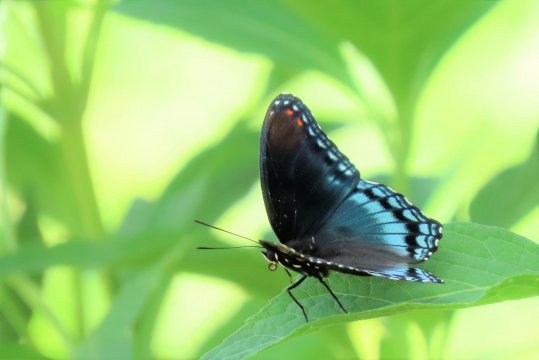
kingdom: Animalia
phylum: Arthropoda
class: Insecta
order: Lepidoptera
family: Nymphalidae
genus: Limenitis
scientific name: Limenitis arthemis
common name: Red-spotted Admiral
